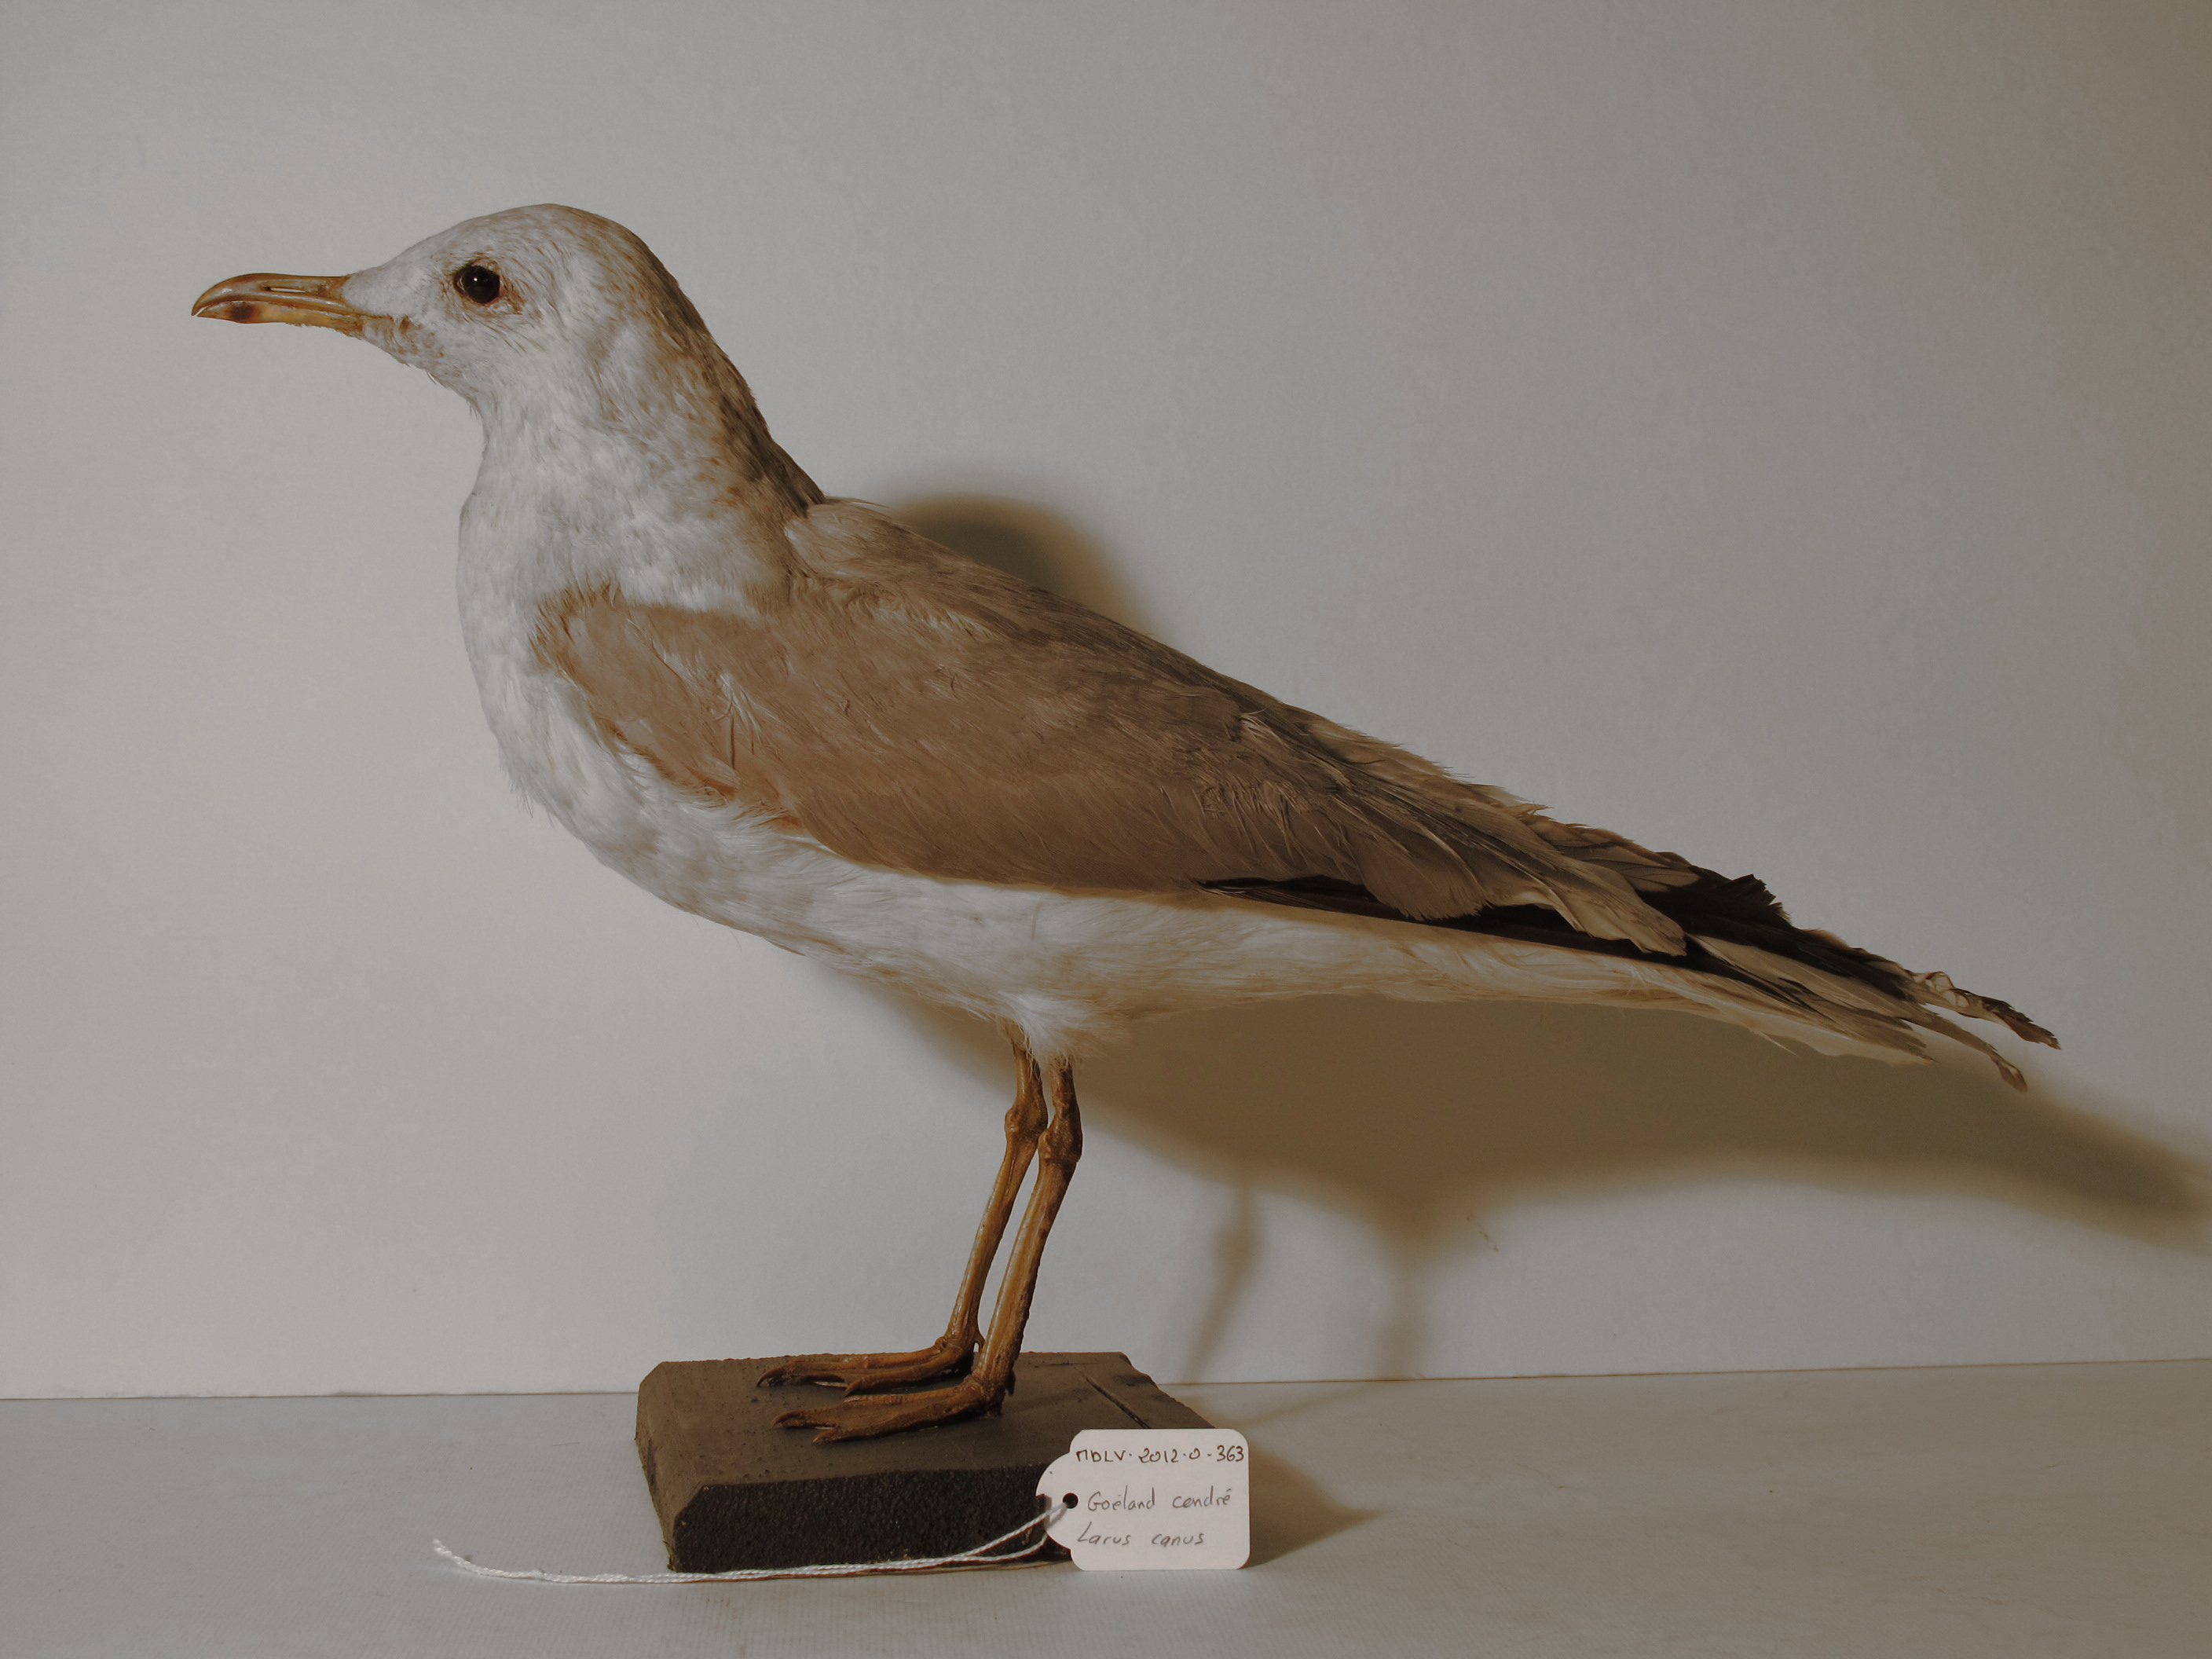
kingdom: Animalia
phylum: Chordata
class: Aves
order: Charadriiformes
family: Laridae
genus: Larus
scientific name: Larus canus
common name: Mew Gull
